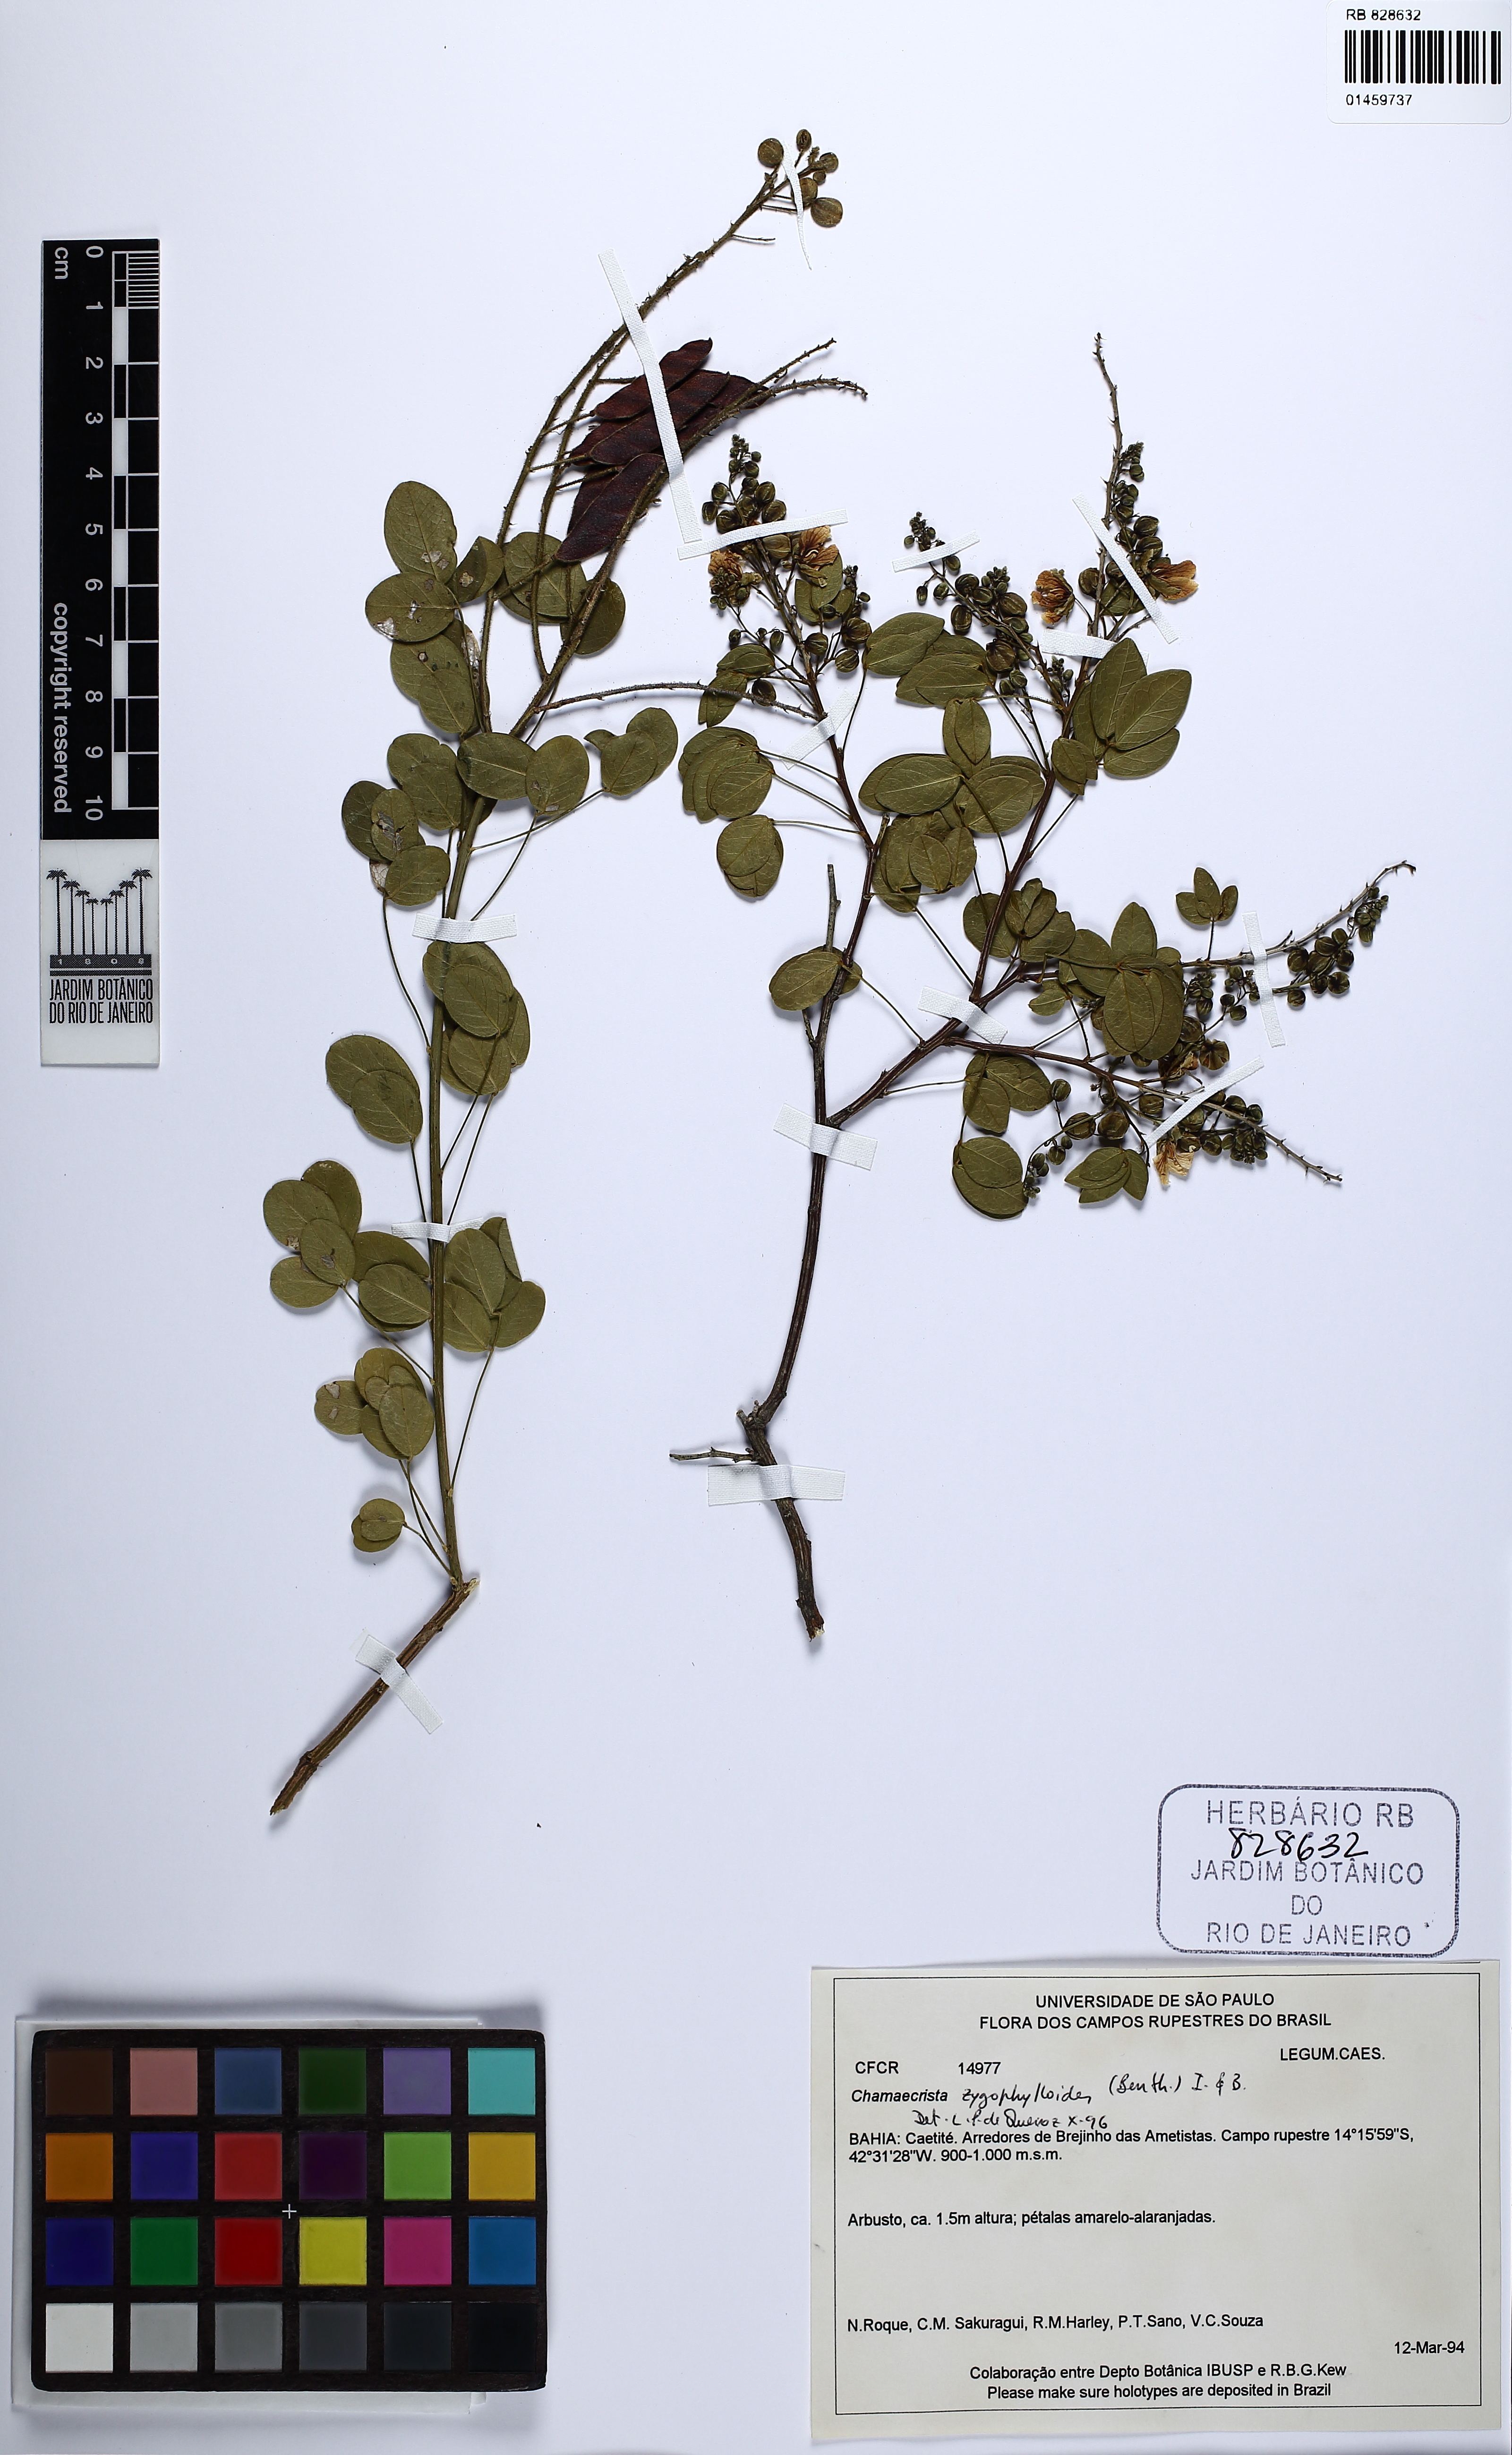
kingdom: Plantae
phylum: Tracheophyta
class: Magnoliopsida
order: Fabales
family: Fabaceae
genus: Chamaecrista
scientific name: Chamaecrista zygophylloides
